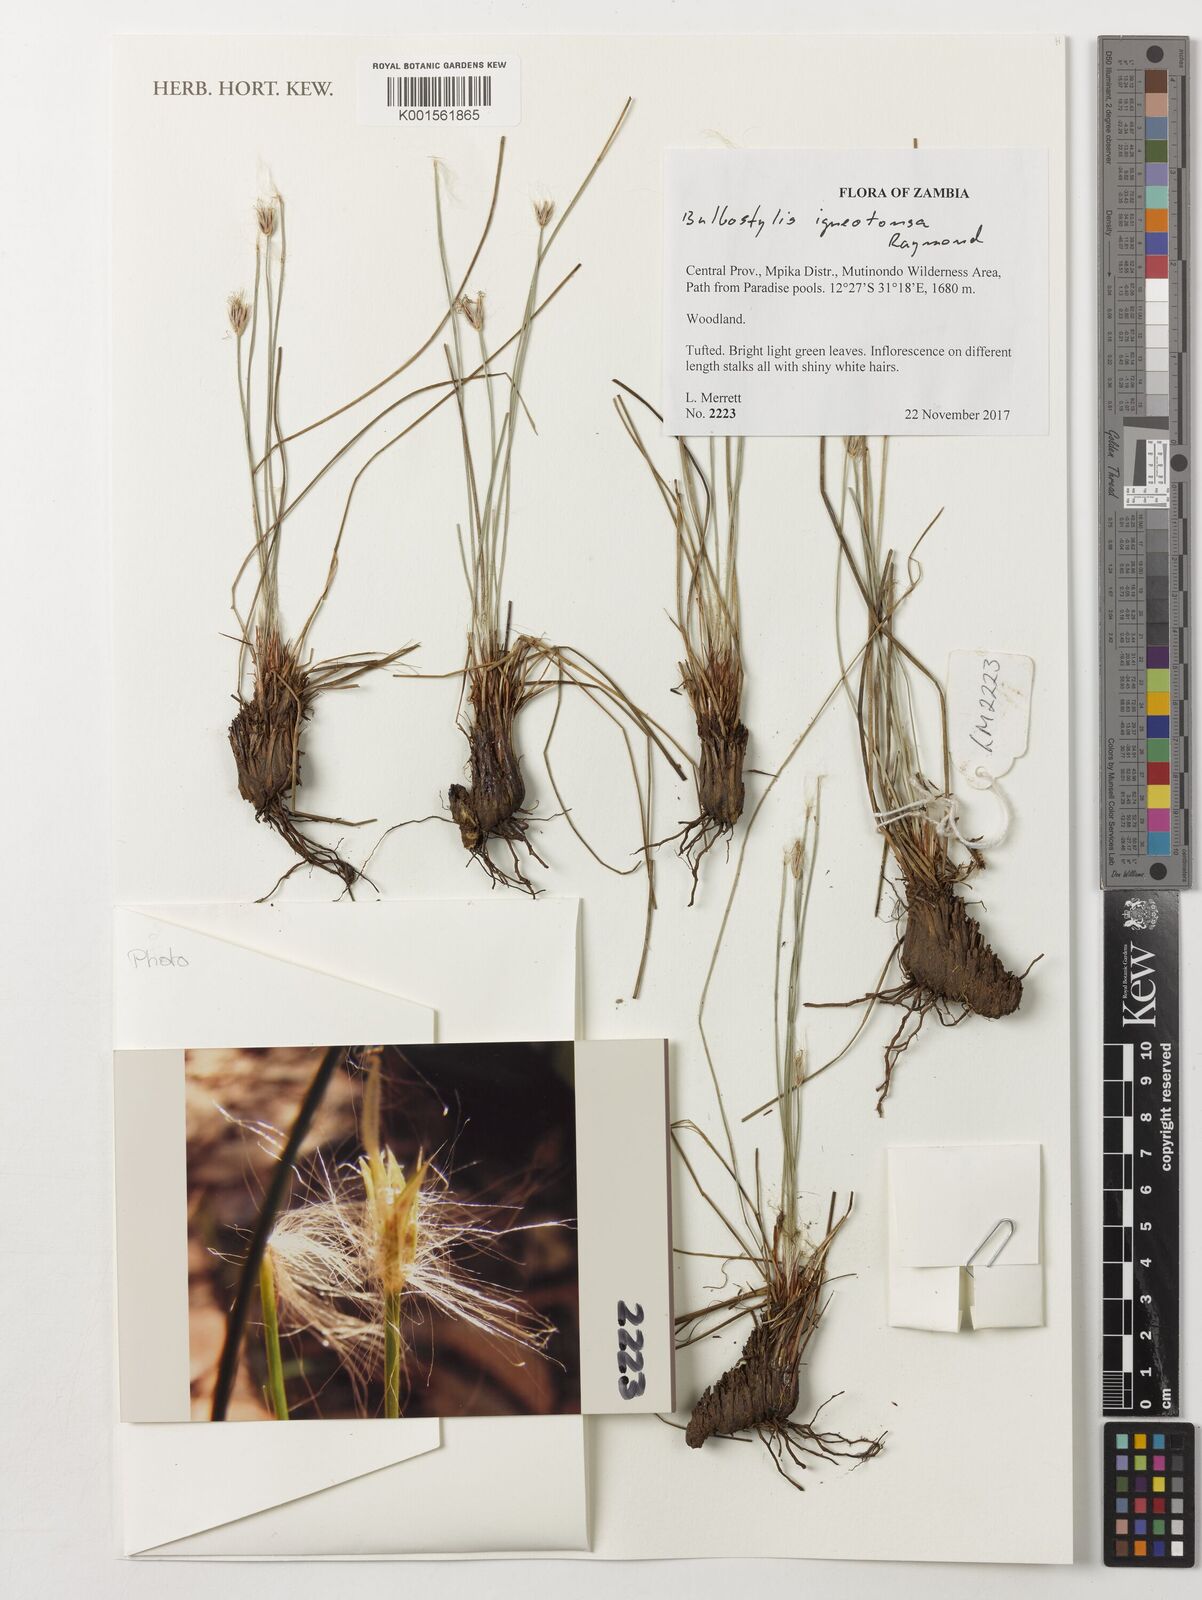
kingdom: Plantae
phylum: Tracheophyta
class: Liliopsida
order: Poales
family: Cyperaceae
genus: Bulbostylis
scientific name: Bulbostylis igneotonsa
